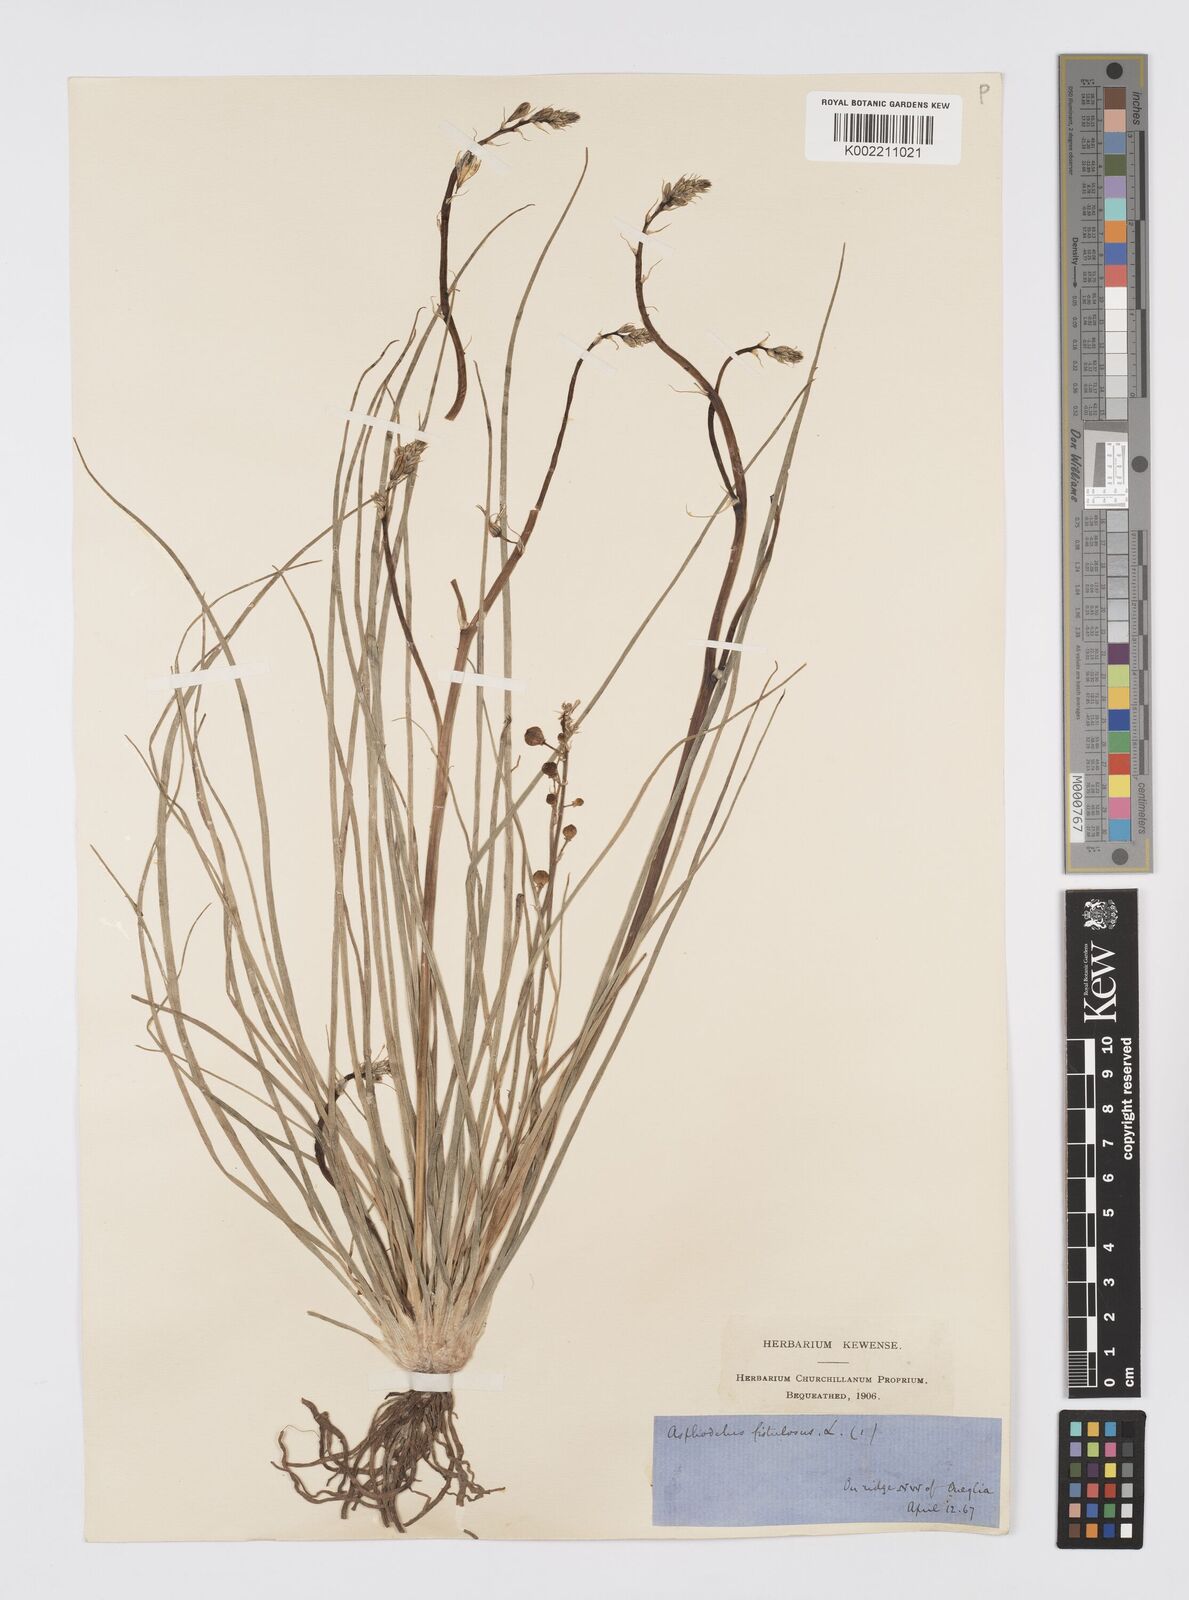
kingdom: Plantae
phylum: Tracheophyta
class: Liliopsida
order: Asparagales
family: Asphodelaceae
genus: Asphodelus
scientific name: Asphodelus fistulosus
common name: Onionweed
